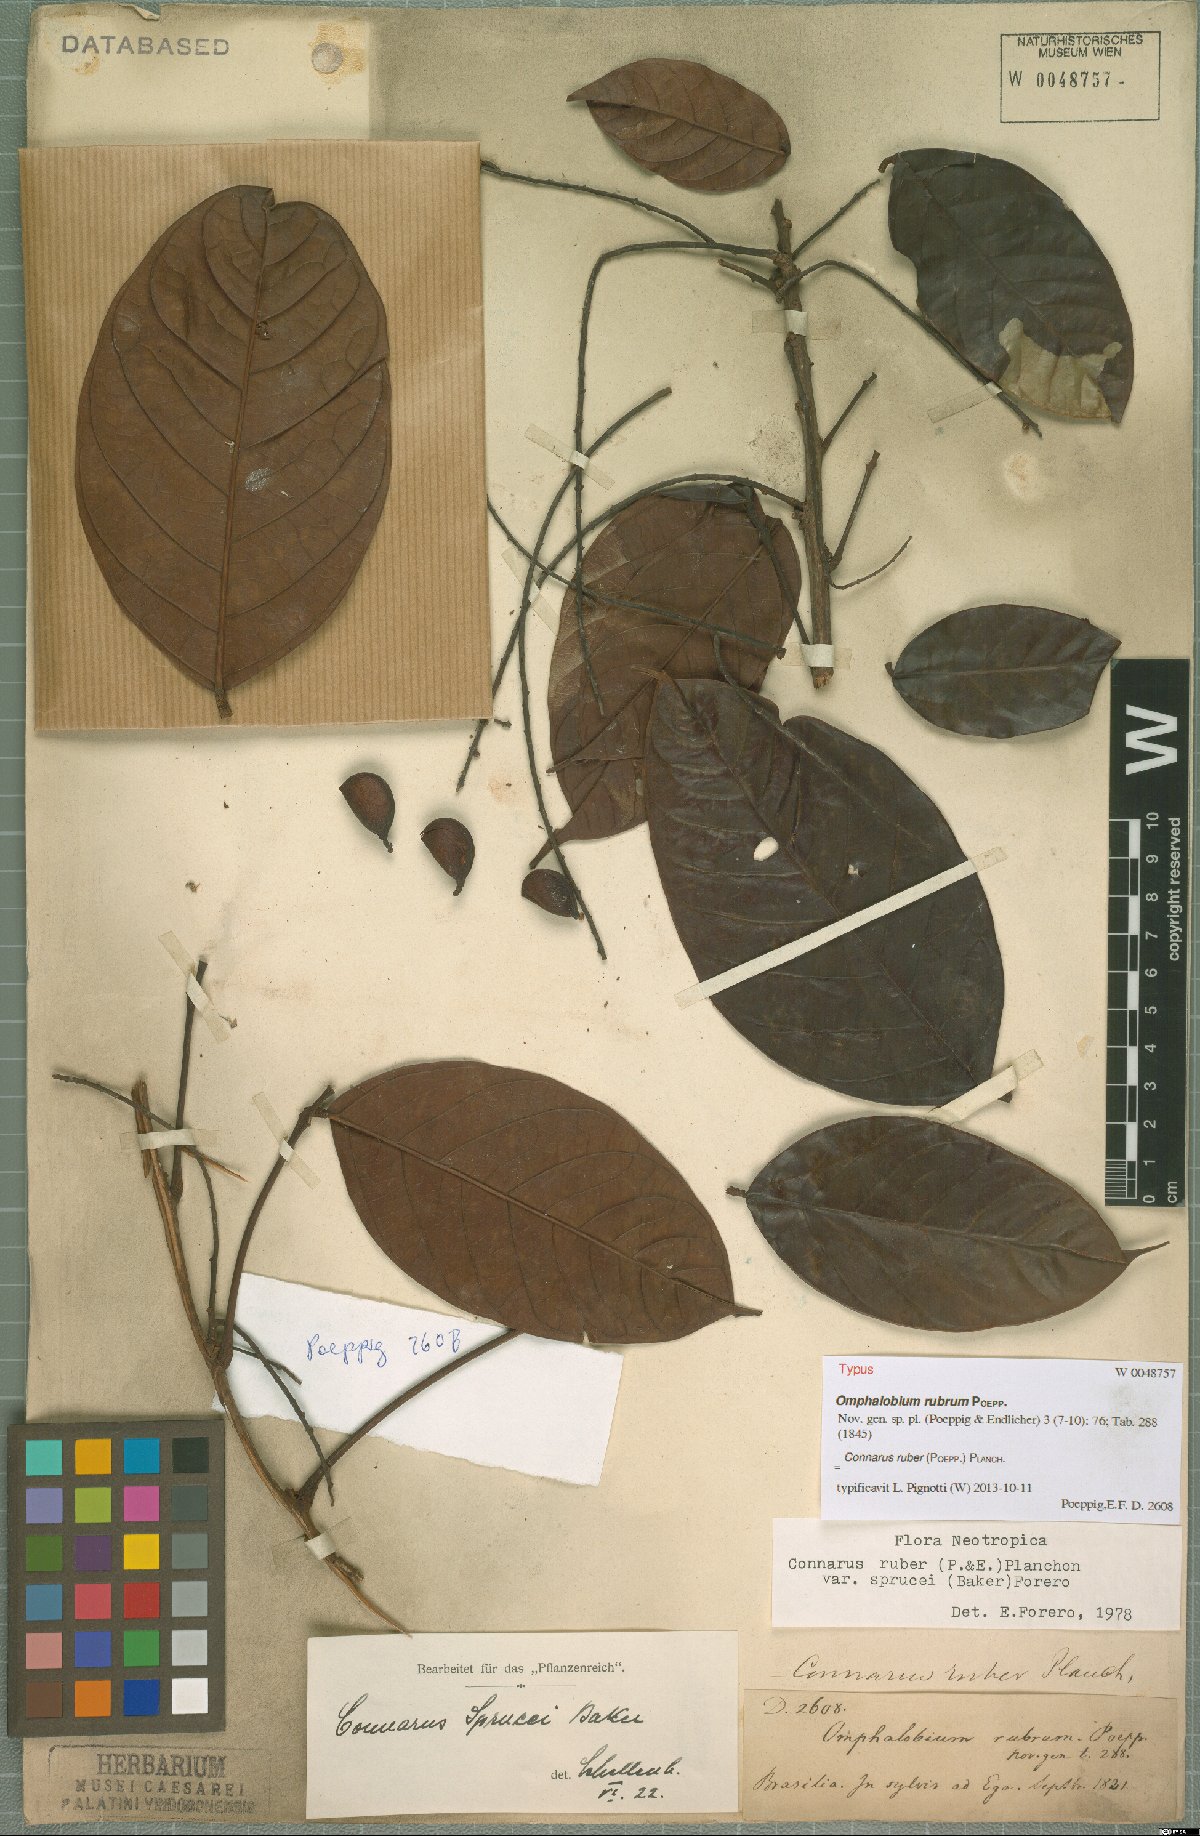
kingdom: Plantae
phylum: Tracheophyta
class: Magnoliopsida
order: Oxalidales
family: Connaraceae
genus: Connarus
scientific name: Connarus ruber
